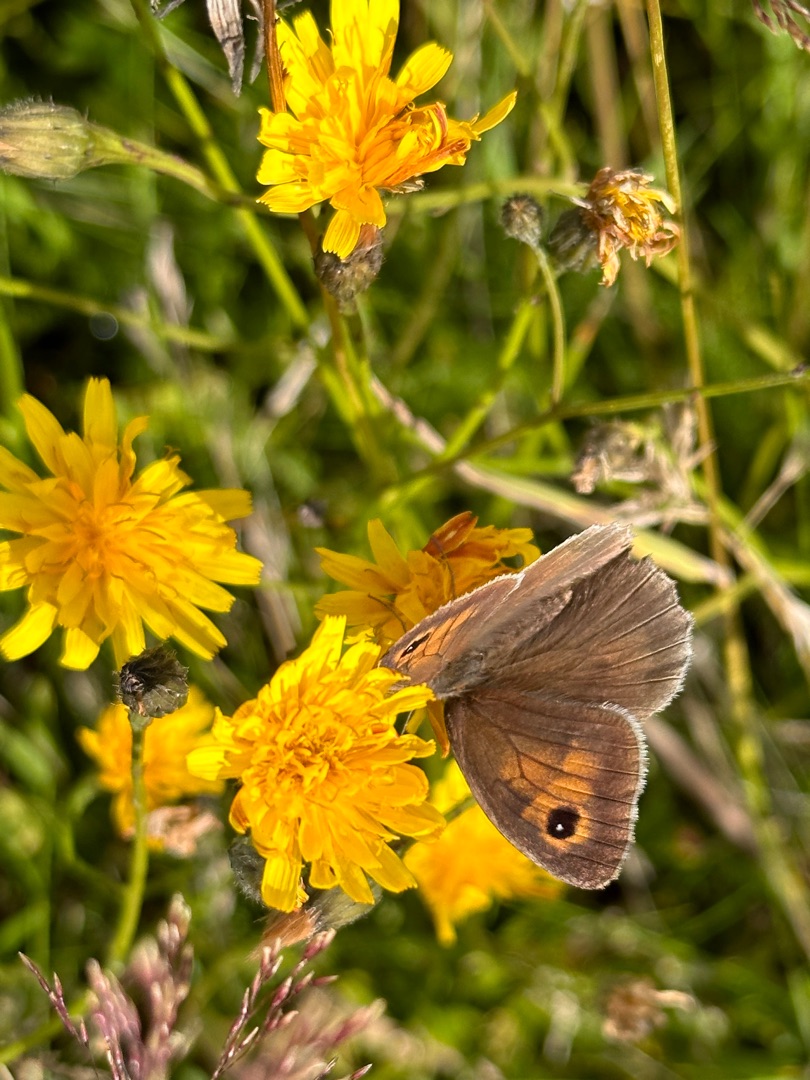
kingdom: Animalia
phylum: Arthropoda
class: Insecta
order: Lepidoptera
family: Nymphalidae
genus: Maniola
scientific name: Maniola jurtina
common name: Græsrandøje
